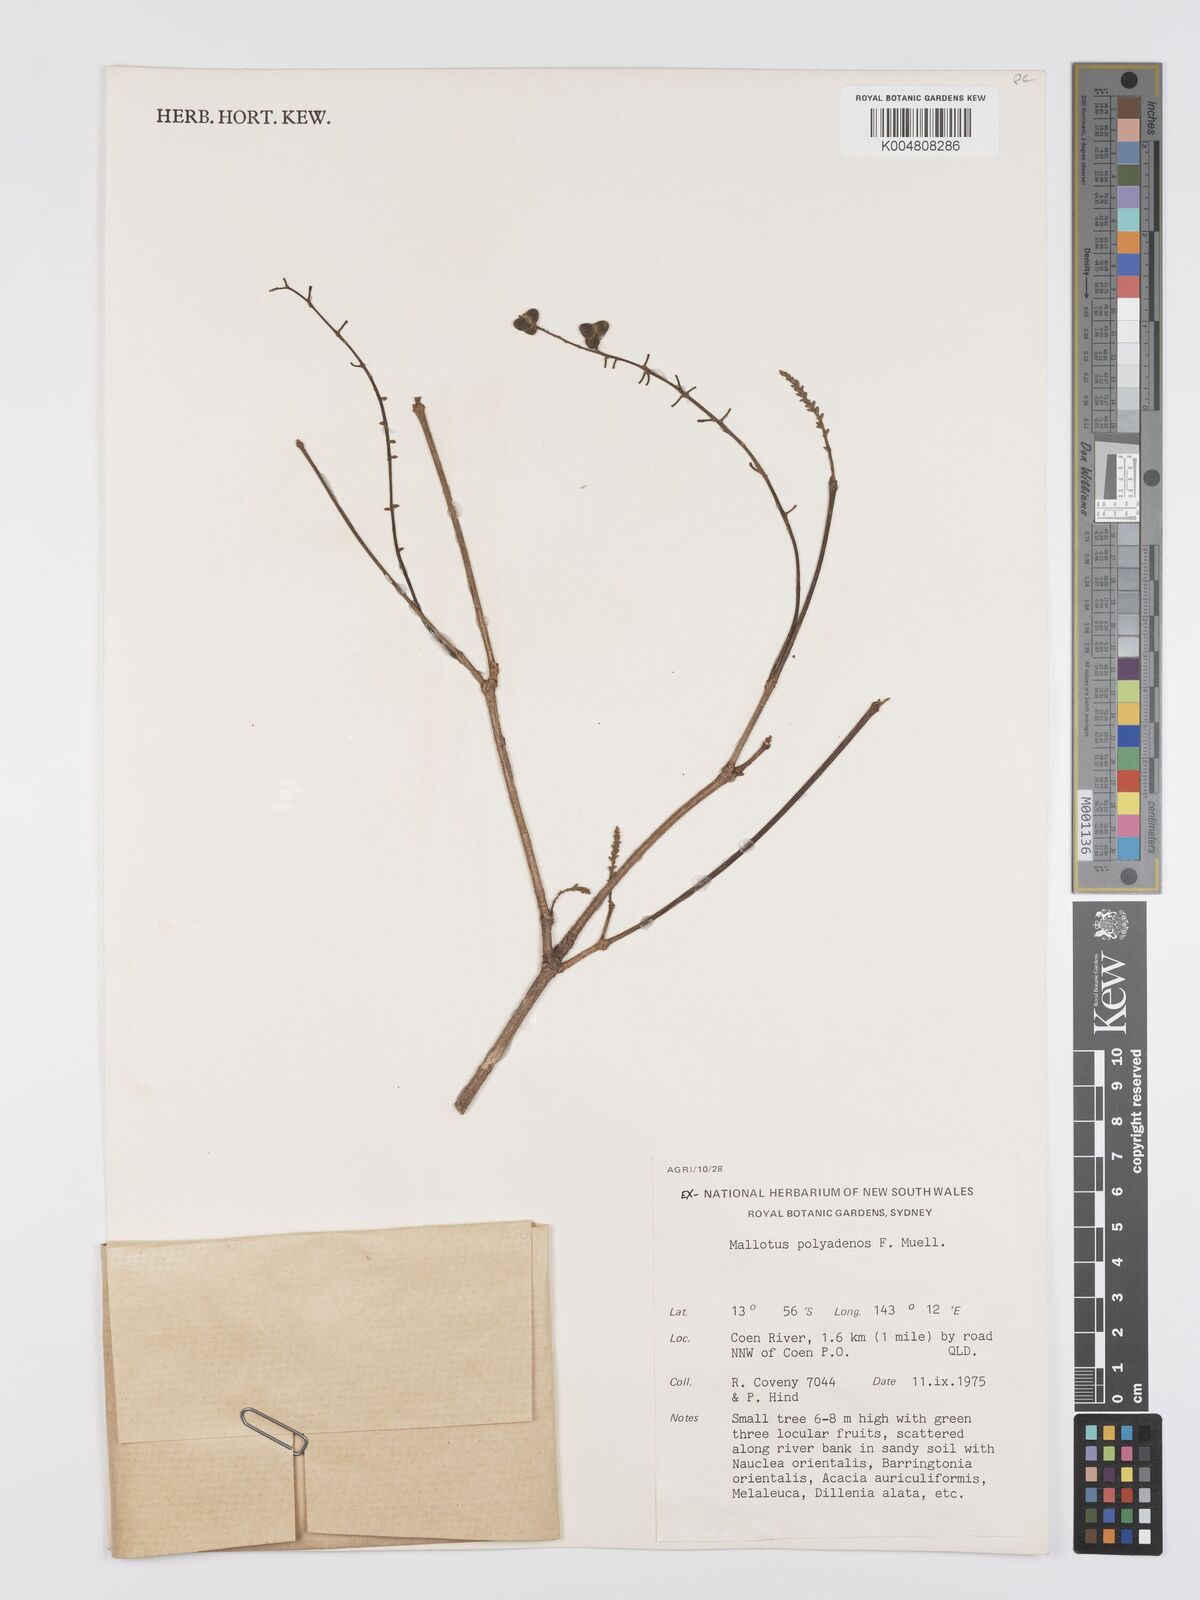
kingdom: Plantae
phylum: Tracheophyta
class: Magnoliopsida
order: Malpighiales
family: Euphorbiaceae
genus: Mallotus
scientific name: Mallotus polyadenos
